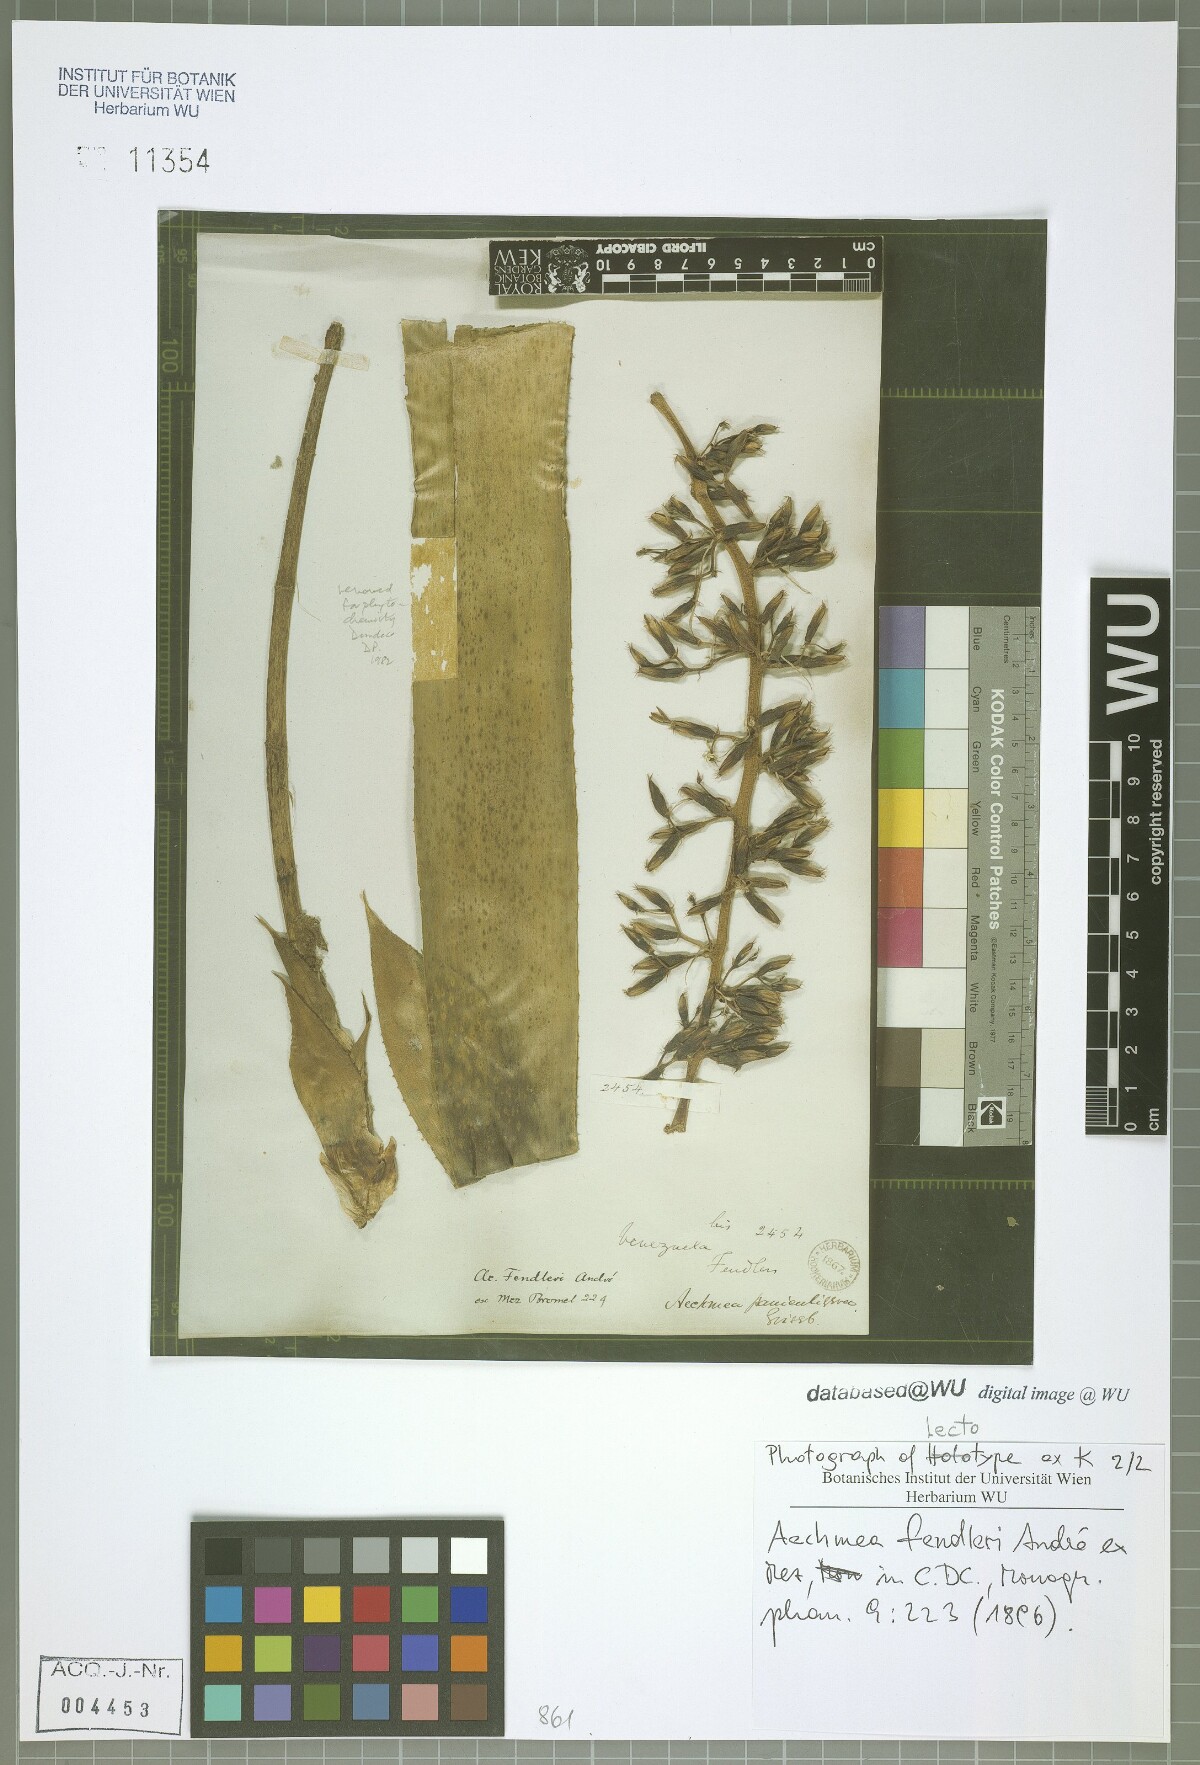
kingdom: Plantae
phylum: Tracheophyta
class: Liliopsida
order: Poales
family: Bromeliaceae
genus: Aechmea
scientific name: Aechmea fendleri
